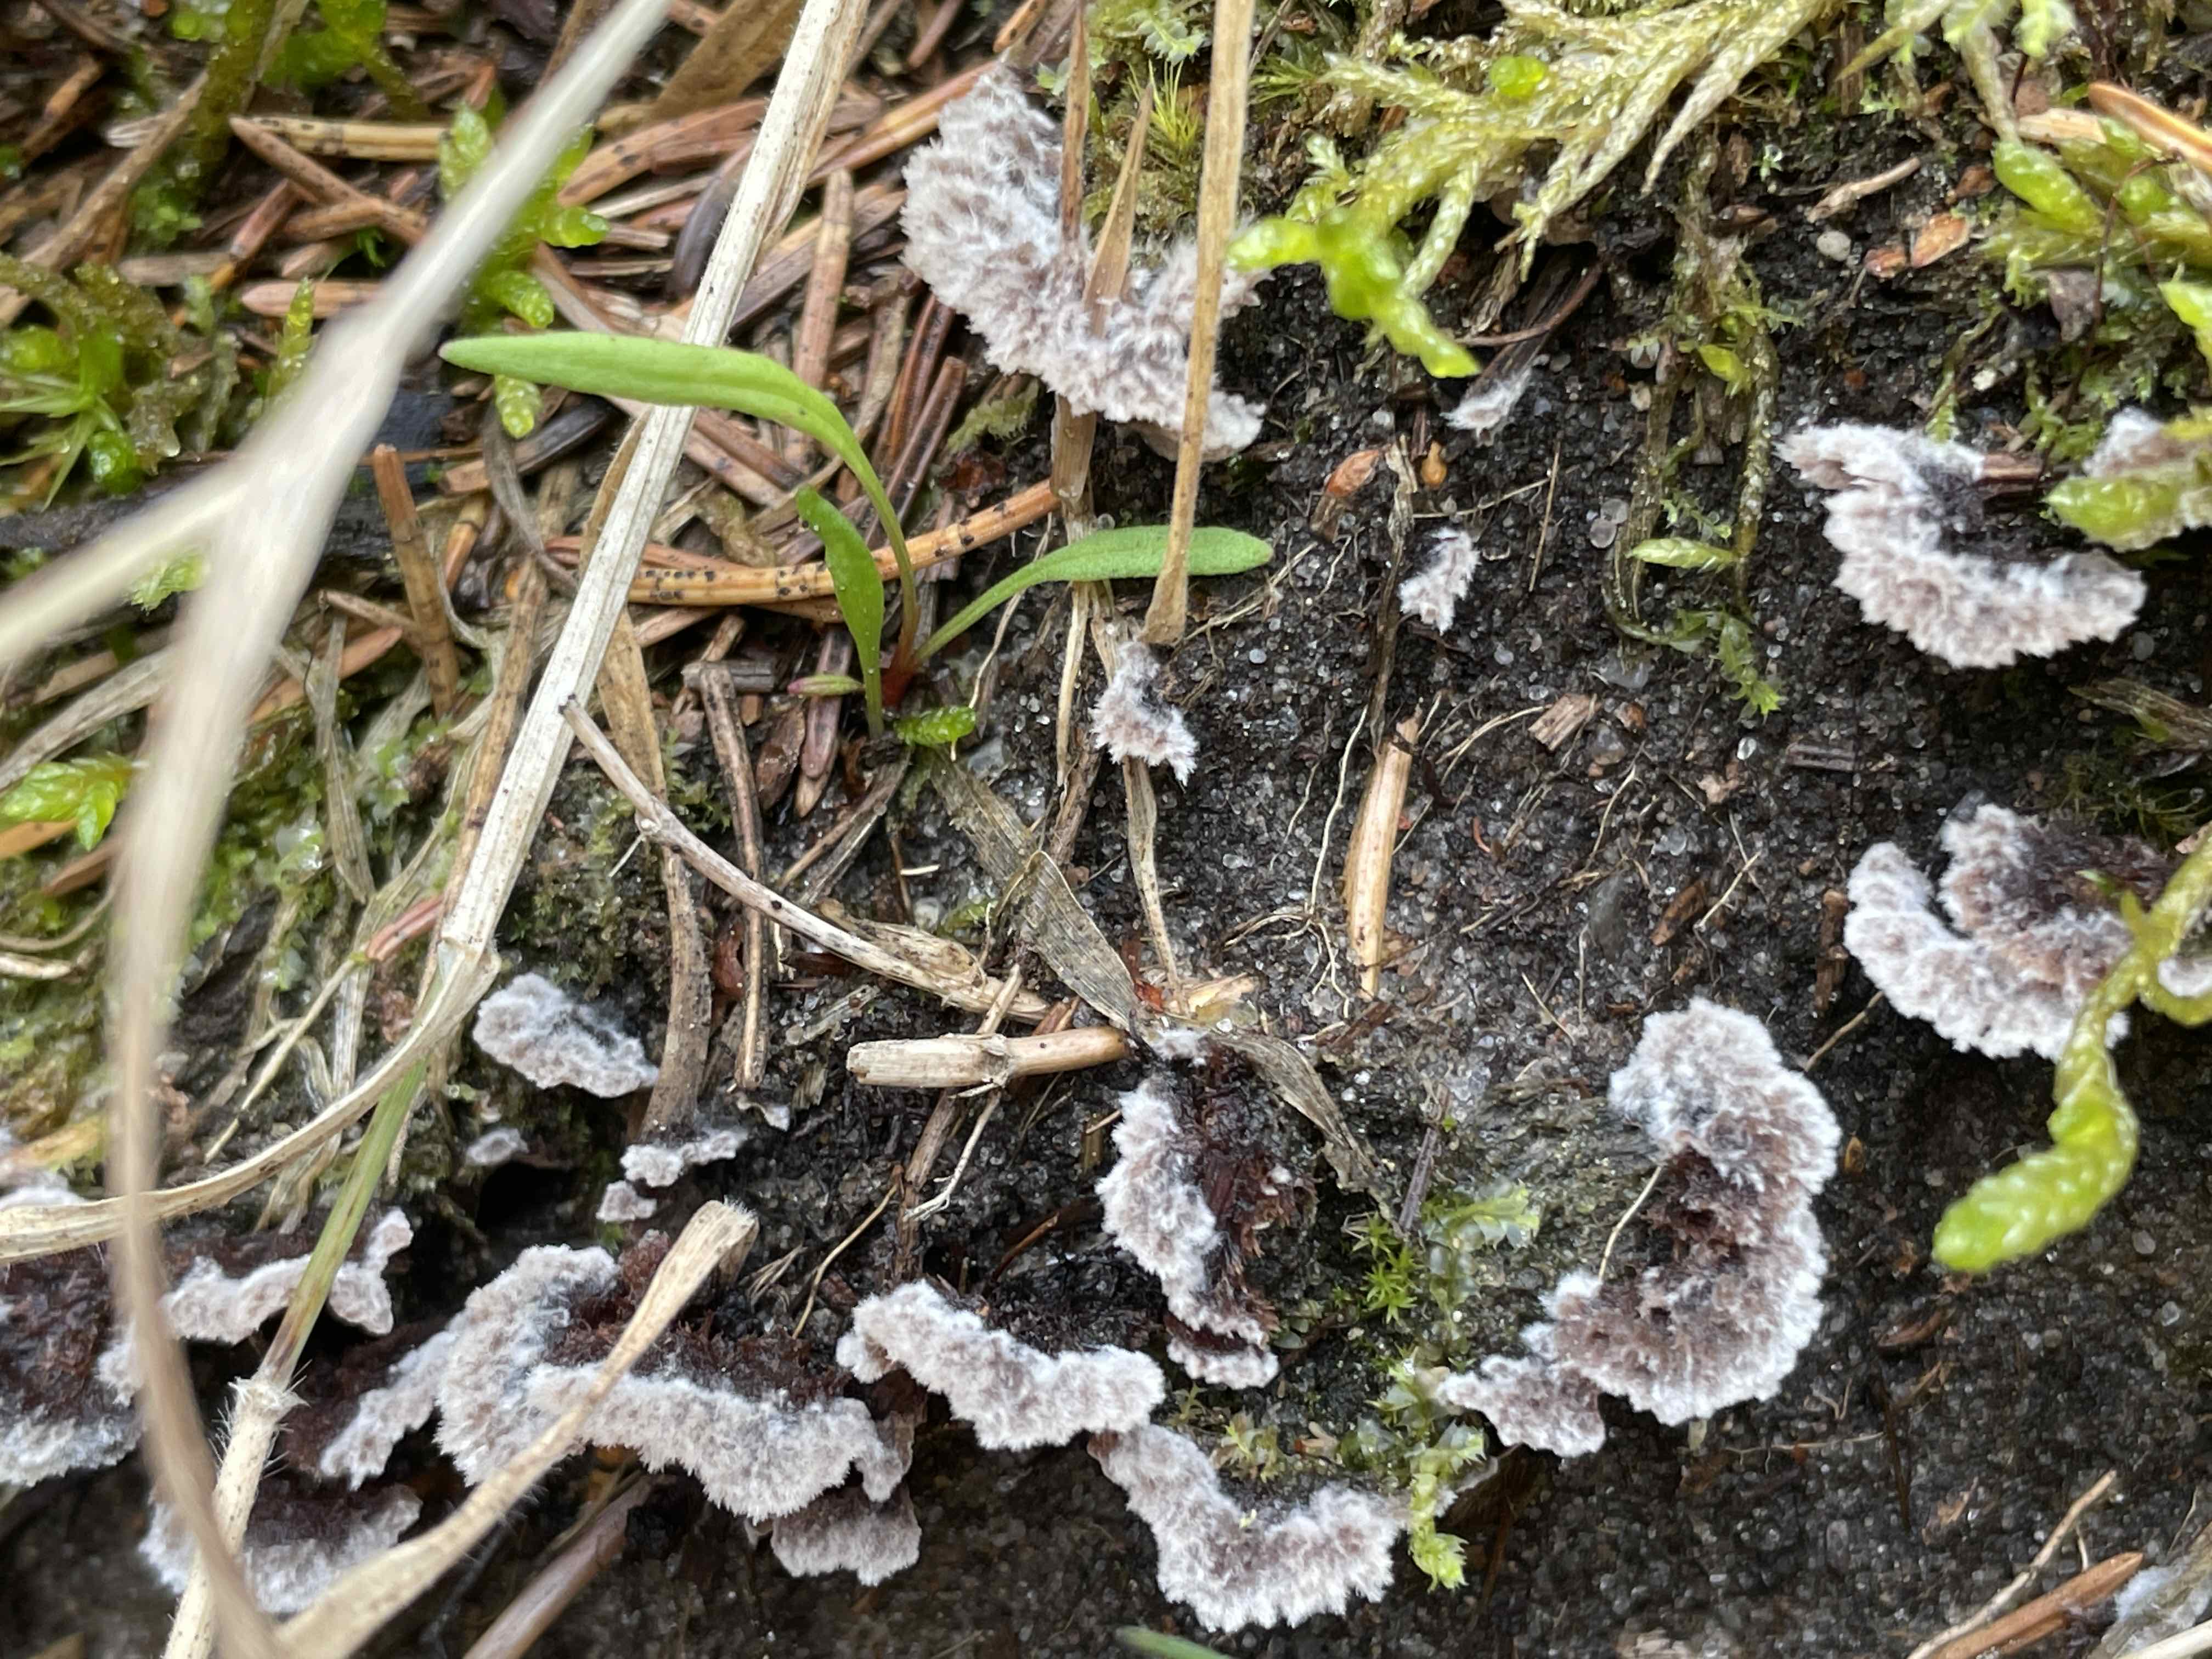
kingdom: Fungi
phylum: Basidiomycota
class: Agaricomycetes
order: Thelephorales
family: Thelephoraceae
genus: Thelephora
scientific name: Thelephora terrestris
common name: fliget frynsesvamp
